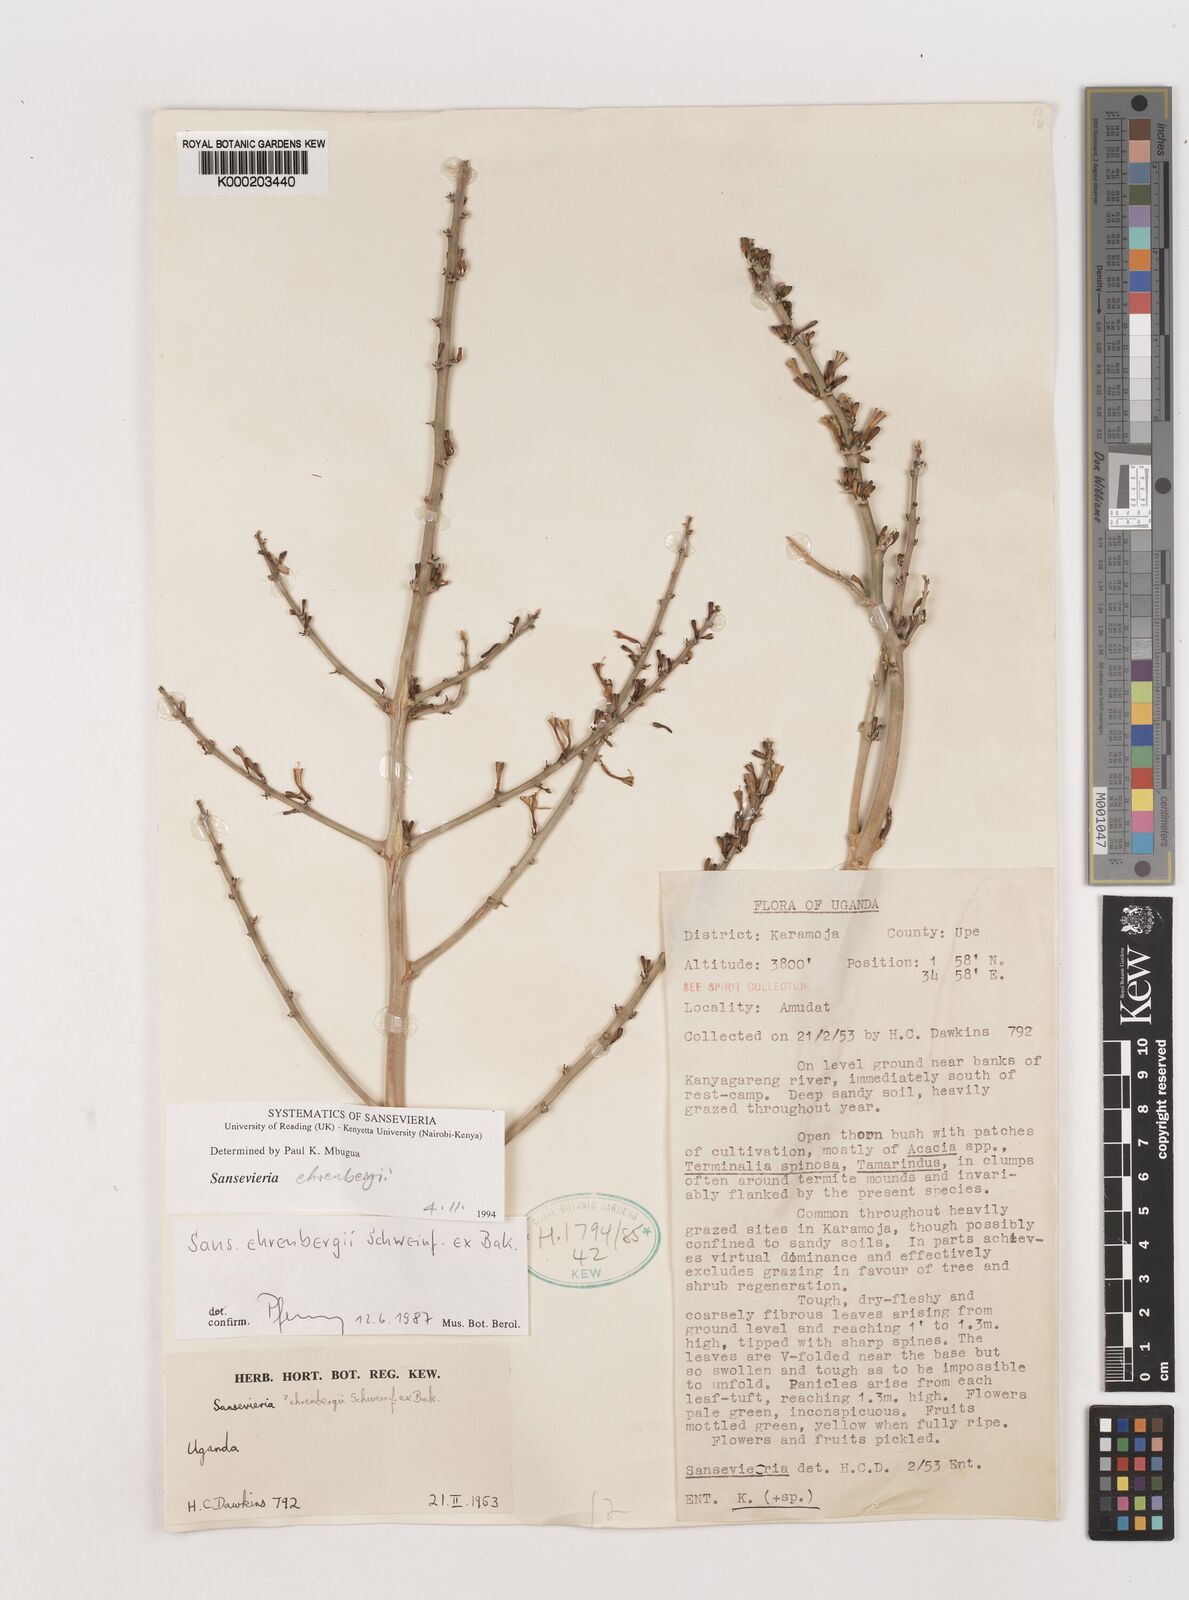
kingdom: Plantae
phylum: Tracheophyta
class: Liliopsida
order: Asparagales
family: Asparagaceae
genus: Dracaena
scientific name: Dracaena hanningtonii
